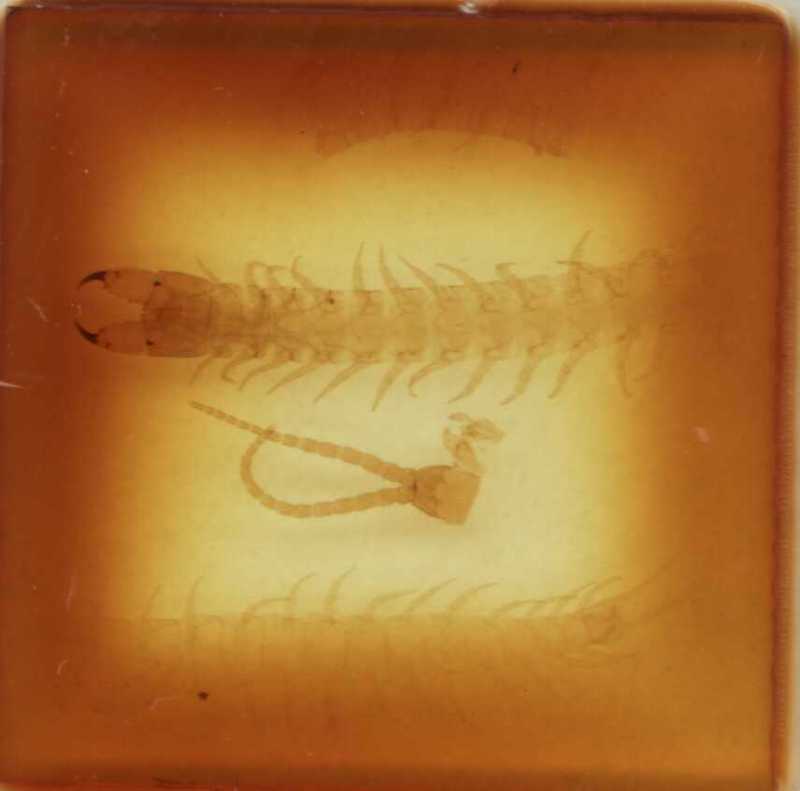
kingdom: Animalia
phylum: Arthropoda
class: Chilopoda
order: Geophilomorpha
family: Geophilidae
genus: Polygonarea
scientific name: Polygonarea lawrencei
